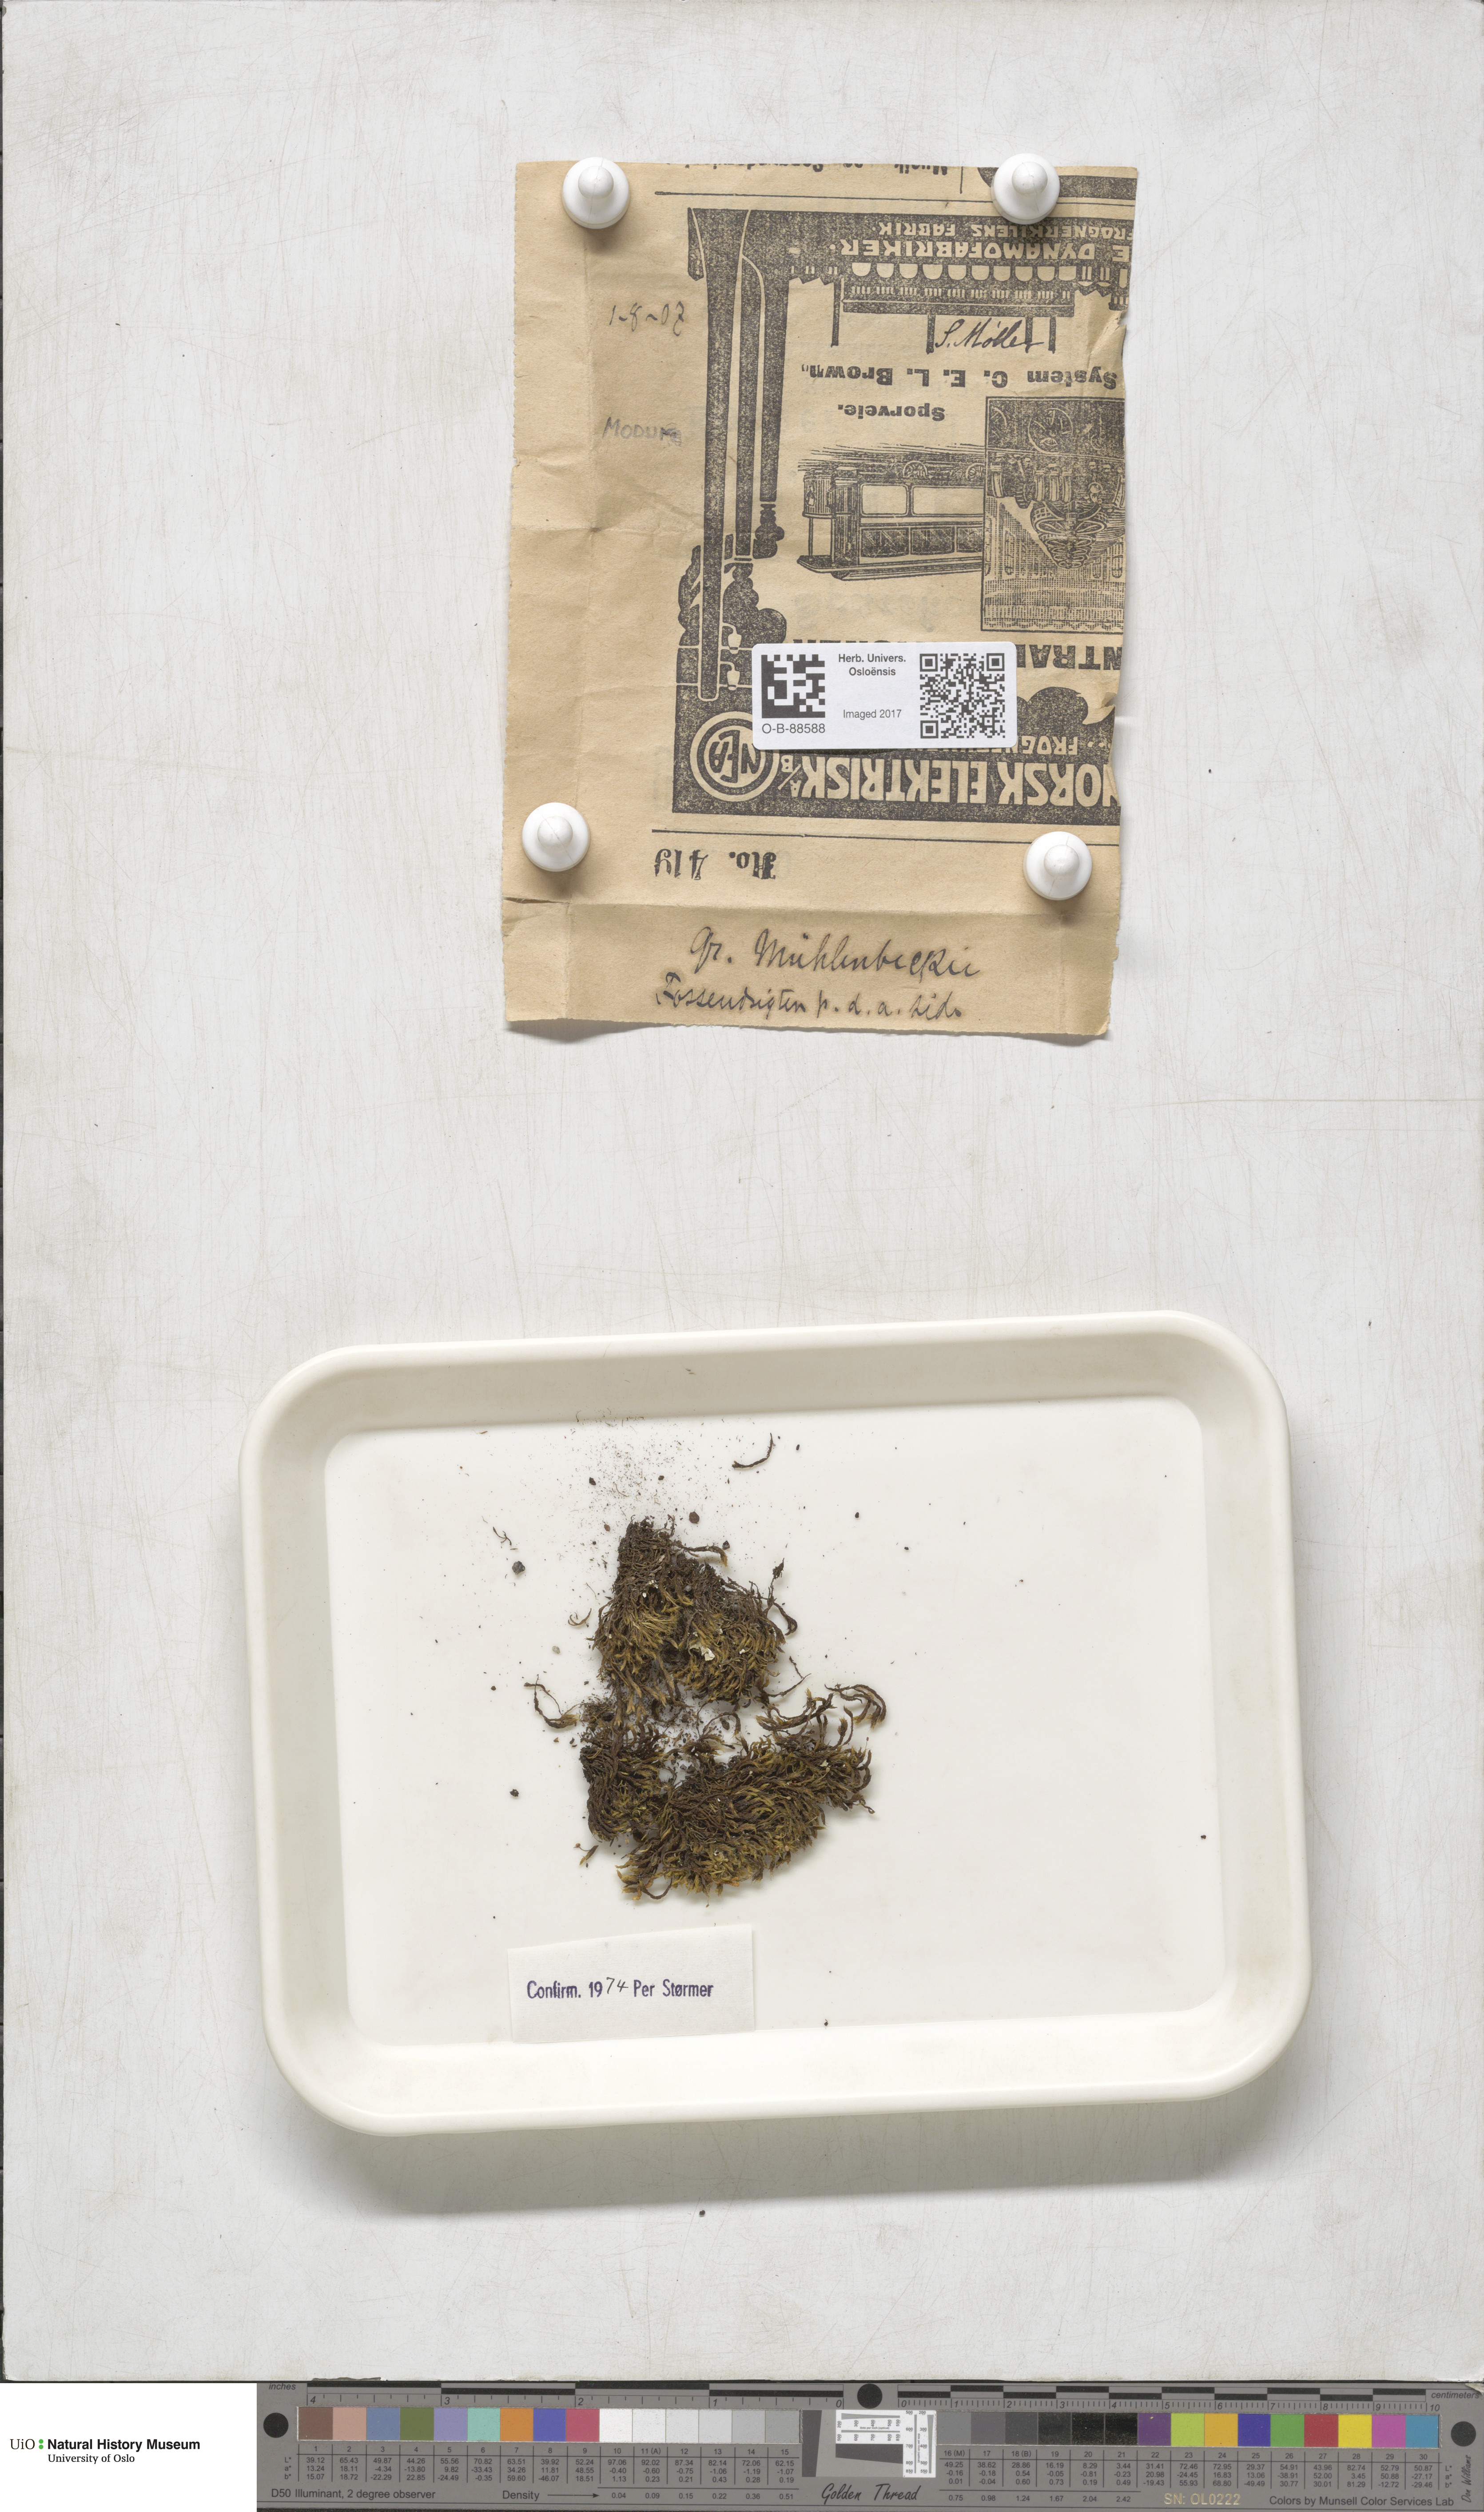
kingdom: Plantae
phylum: Bryophyta
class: Bryopsida
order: Grimmiales
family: Grimmiaceae
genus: Grimmia
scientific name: Grimmia trichophylla
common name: Hair-pointed grimmia
